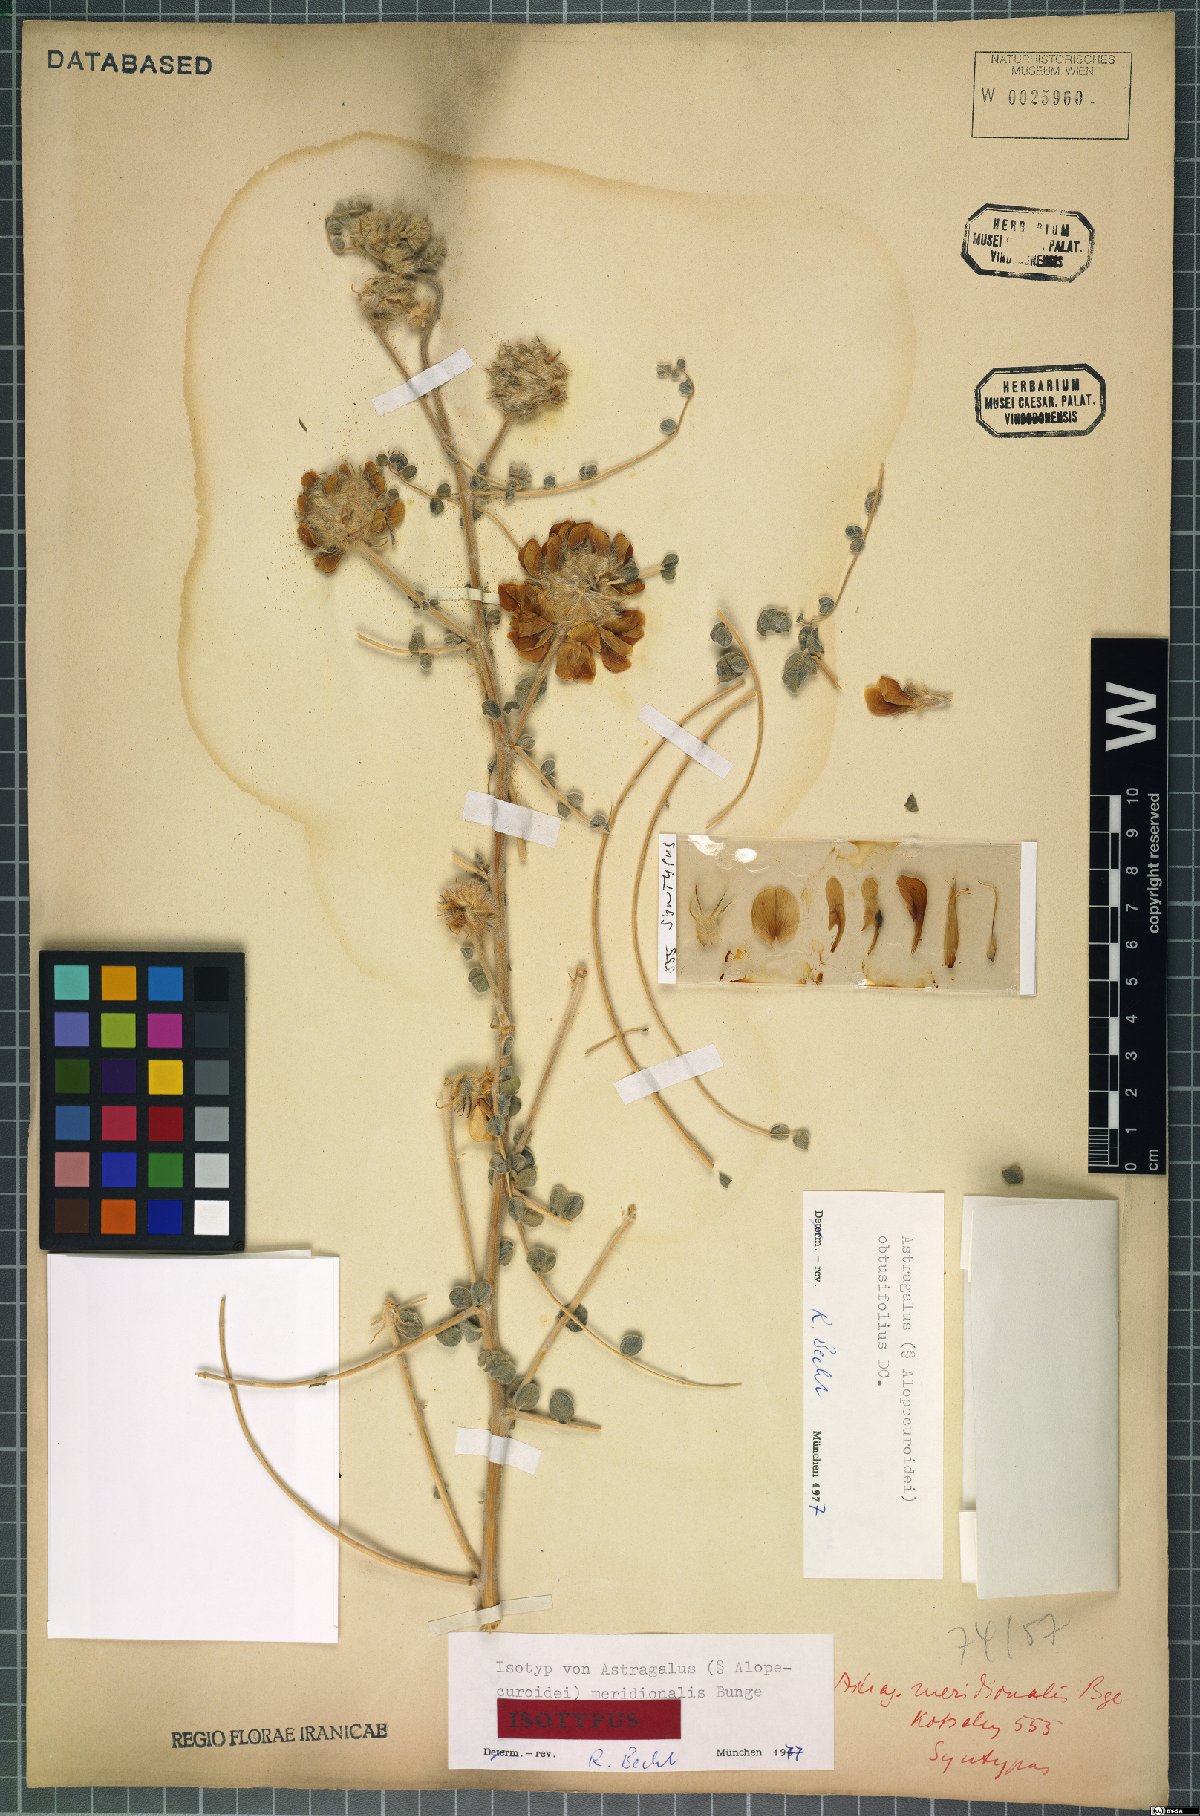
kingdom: Plantae
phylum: Tracheophyta
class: Magnoliopsida
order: Fabales
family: Fabaceae
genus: Astragalus
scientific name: Astragalus obtusifolius
